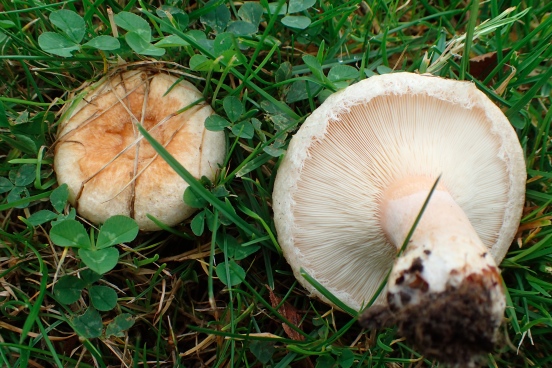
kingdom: Fungi
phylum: Basidiomycota
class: Agaricomycetes
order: Russulales
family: Russulaceae
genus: Lactarius
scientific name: Lactarius pubescens
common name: dunet mælkehat
